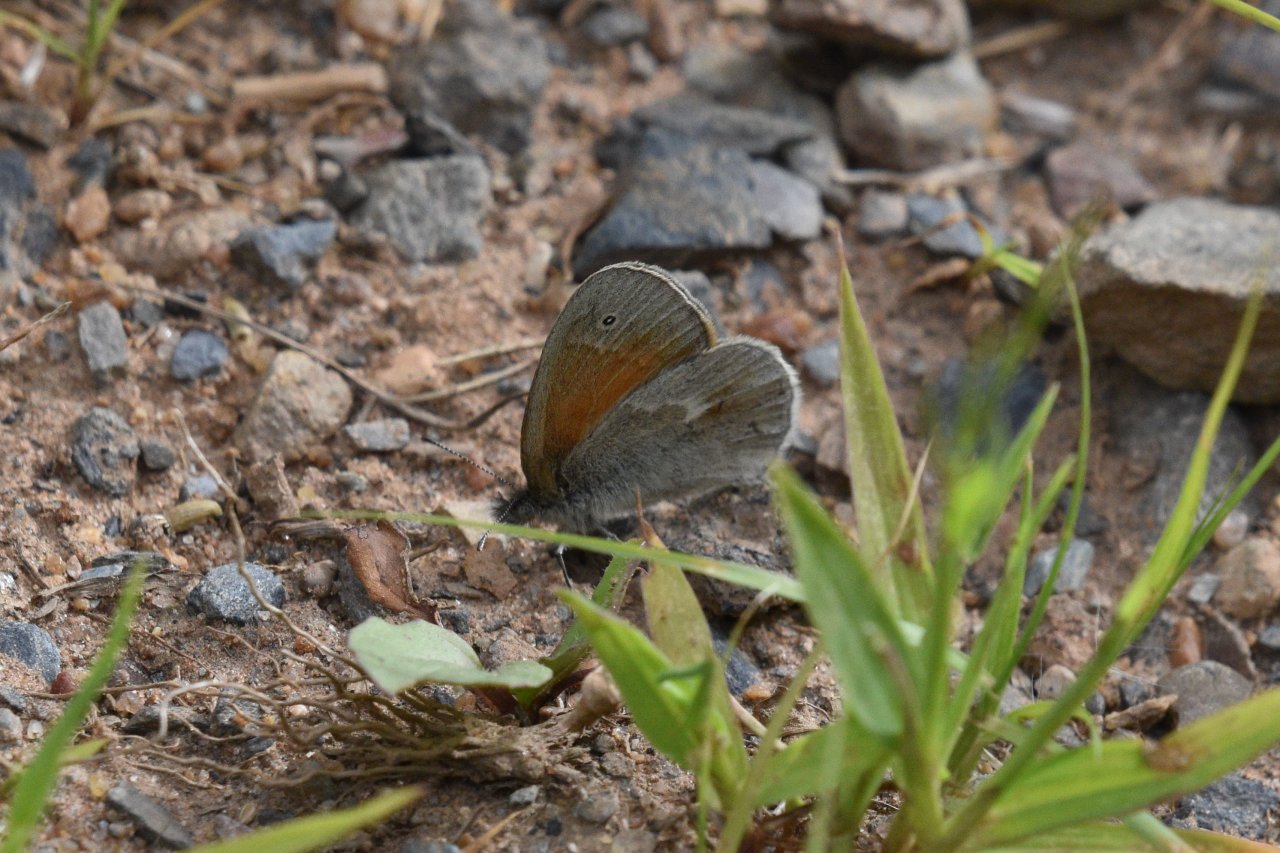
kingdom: Animalia
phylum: Arthropoda
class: Insecta
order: Lepidoptera
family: Nymphalidae
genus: Coenonympha
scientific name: Coenonympha tullia
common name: Large Heath
